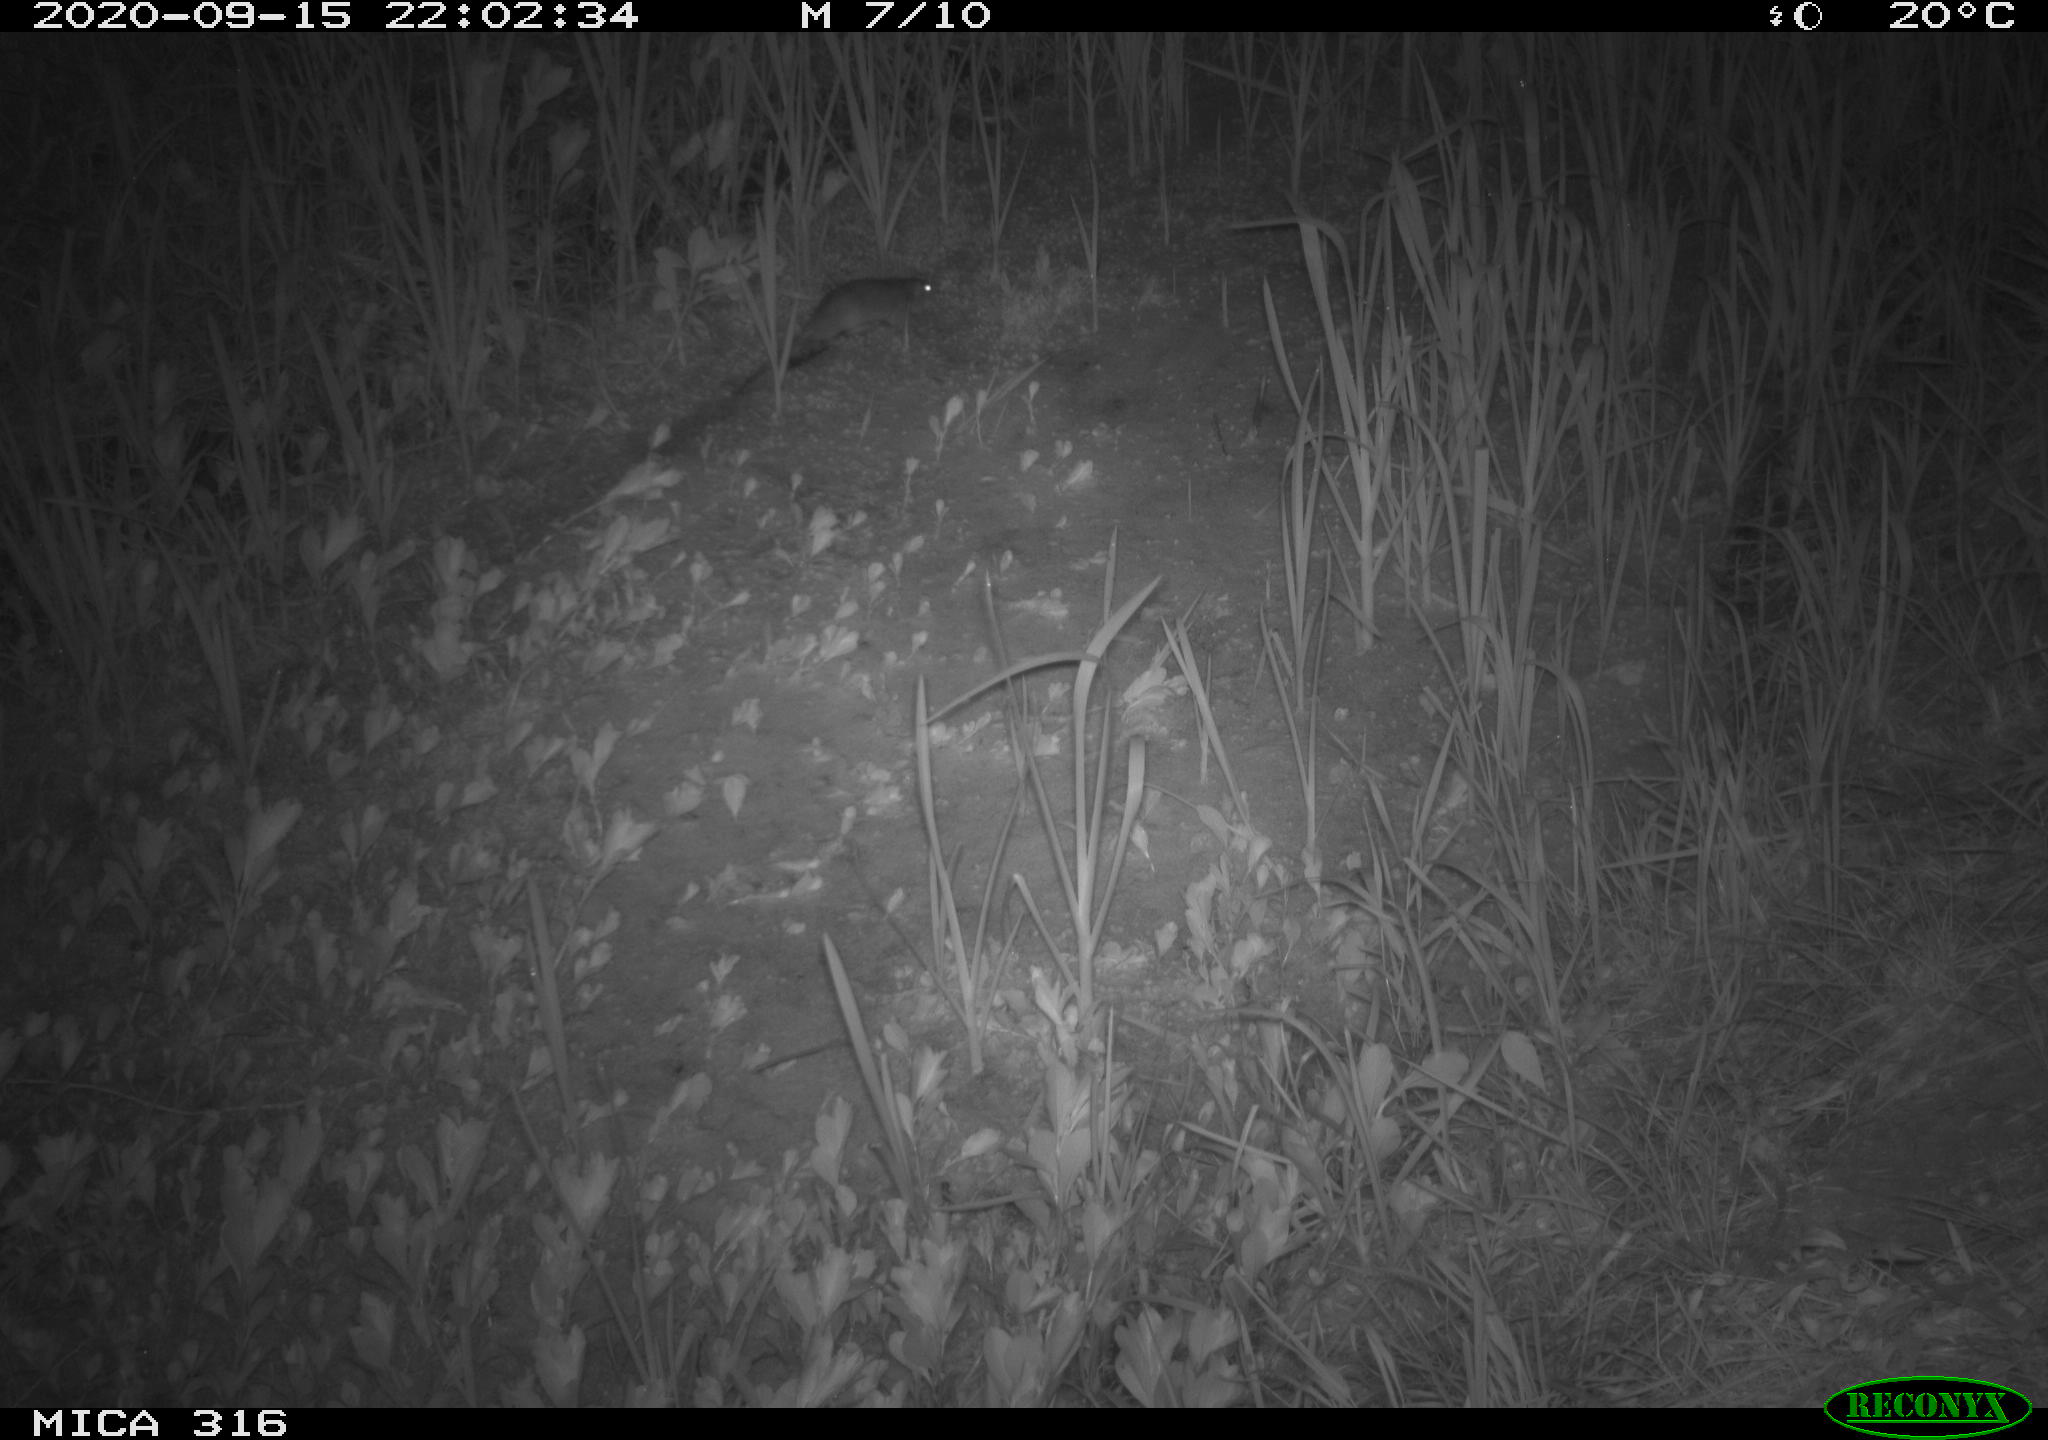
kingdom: Animalia
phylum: Chordata
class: Mammalia
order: Rodentia
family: Muridae
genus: Rattus
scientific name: Rattus norvegicus
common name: Brown rat
